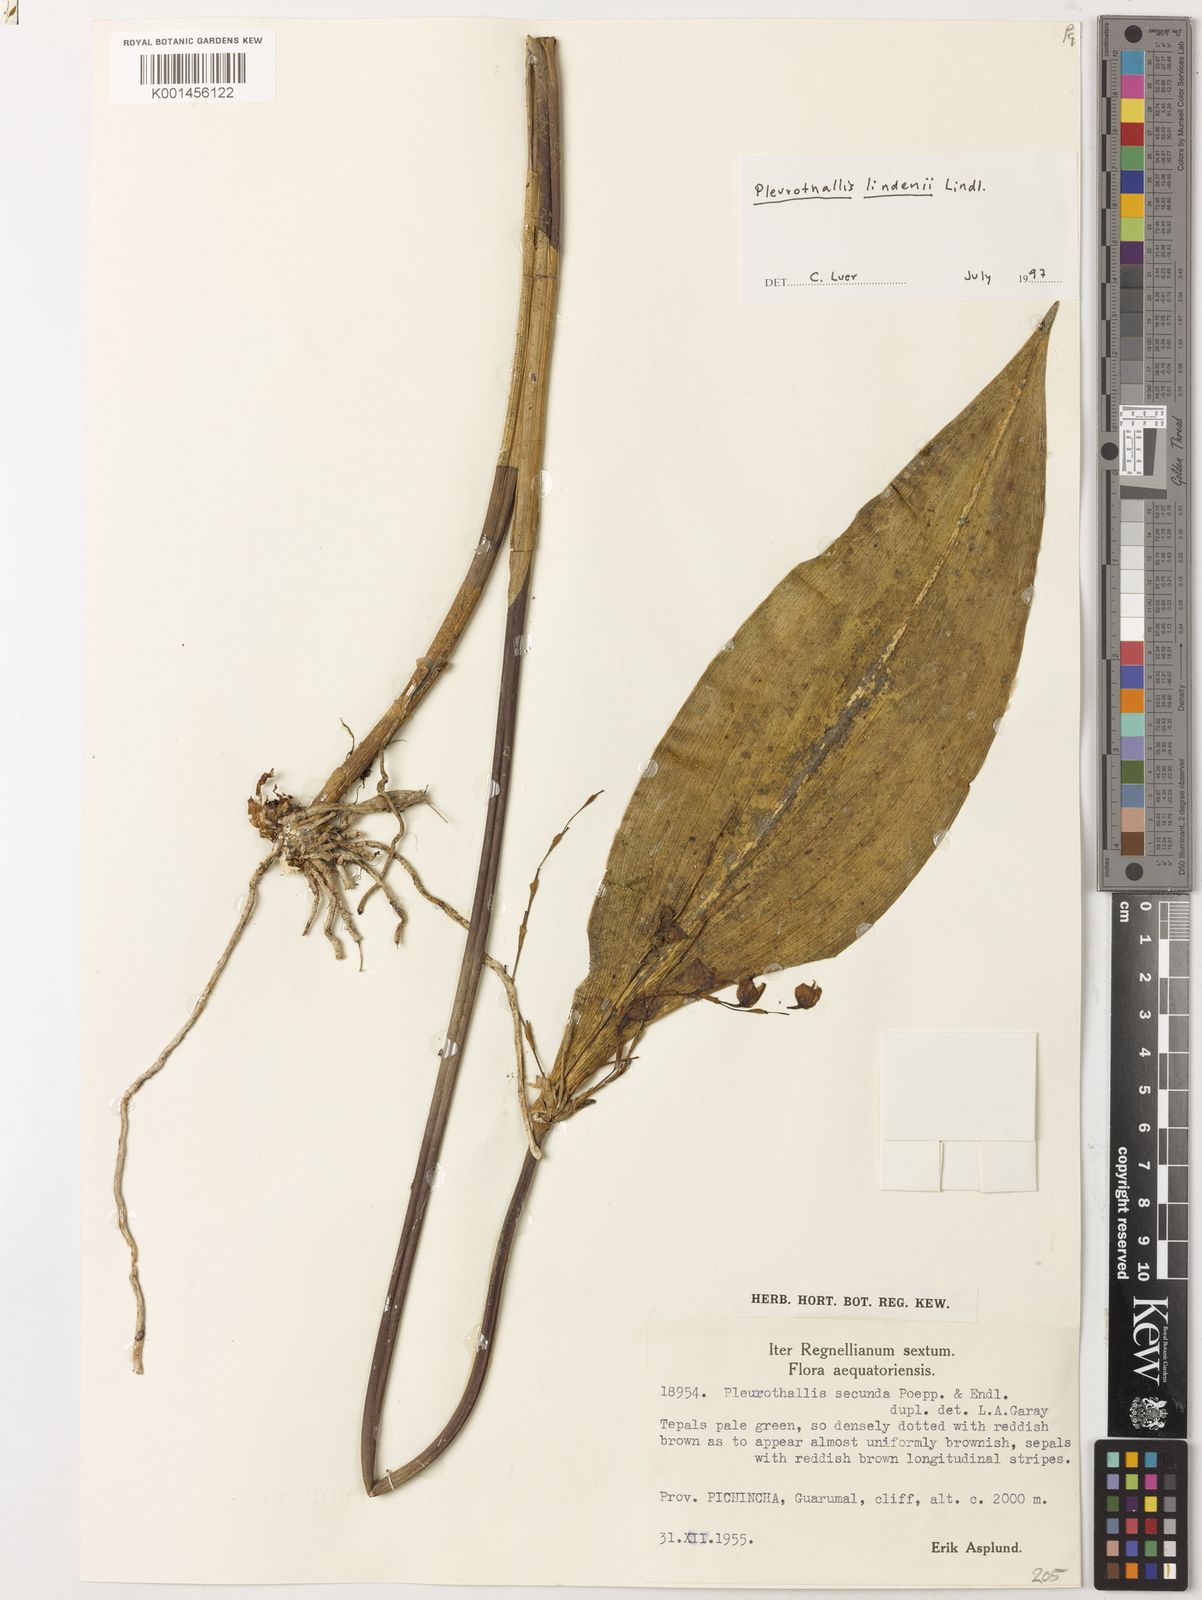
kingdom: Plantae
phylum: Tracheophyta
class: Liliopsida
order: Asparagales
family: Orchidaceae
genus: Pleurothallis
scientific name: Pleurothallis secunda
